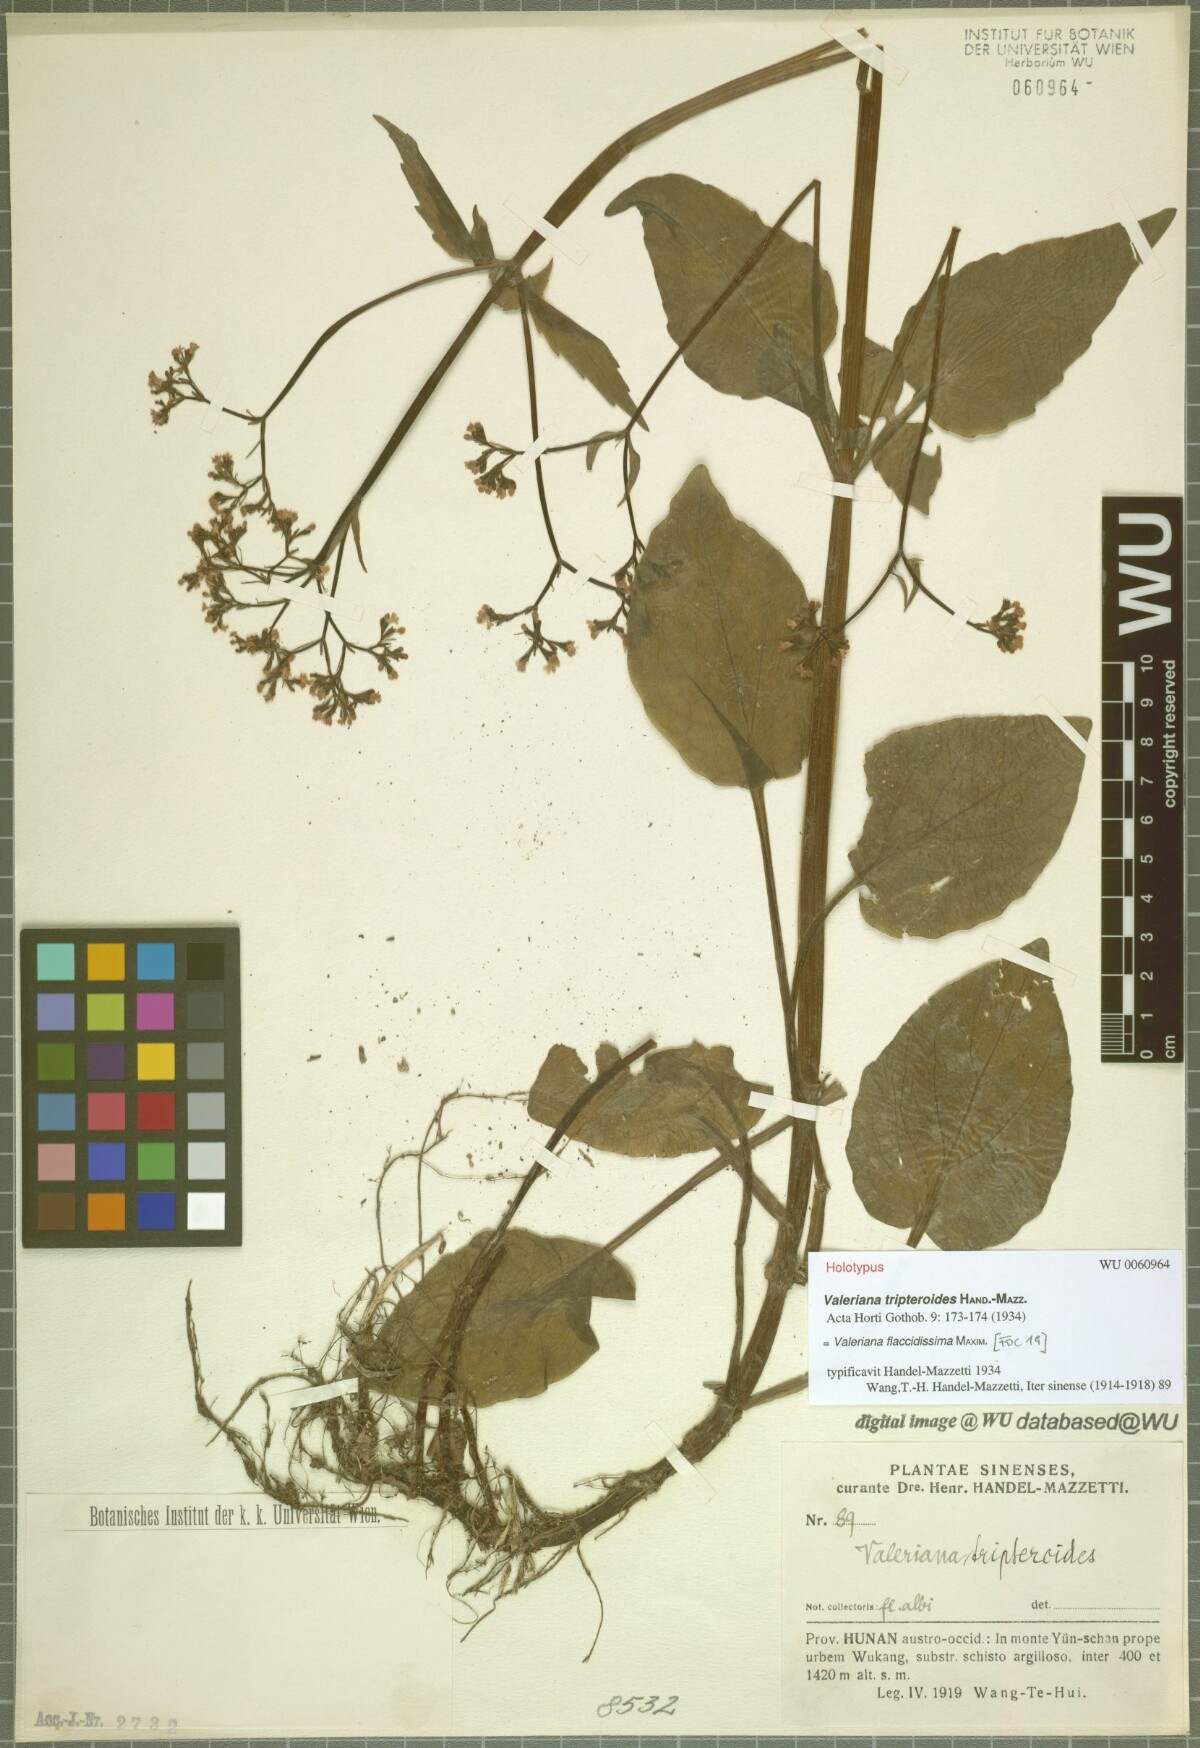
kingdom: Plantae
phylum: Tracheophyta
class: Magnoliopsida
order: Dipsacales
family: Caprifoliaceae
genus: Valeriana
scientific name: Valeriana flaccidissima
